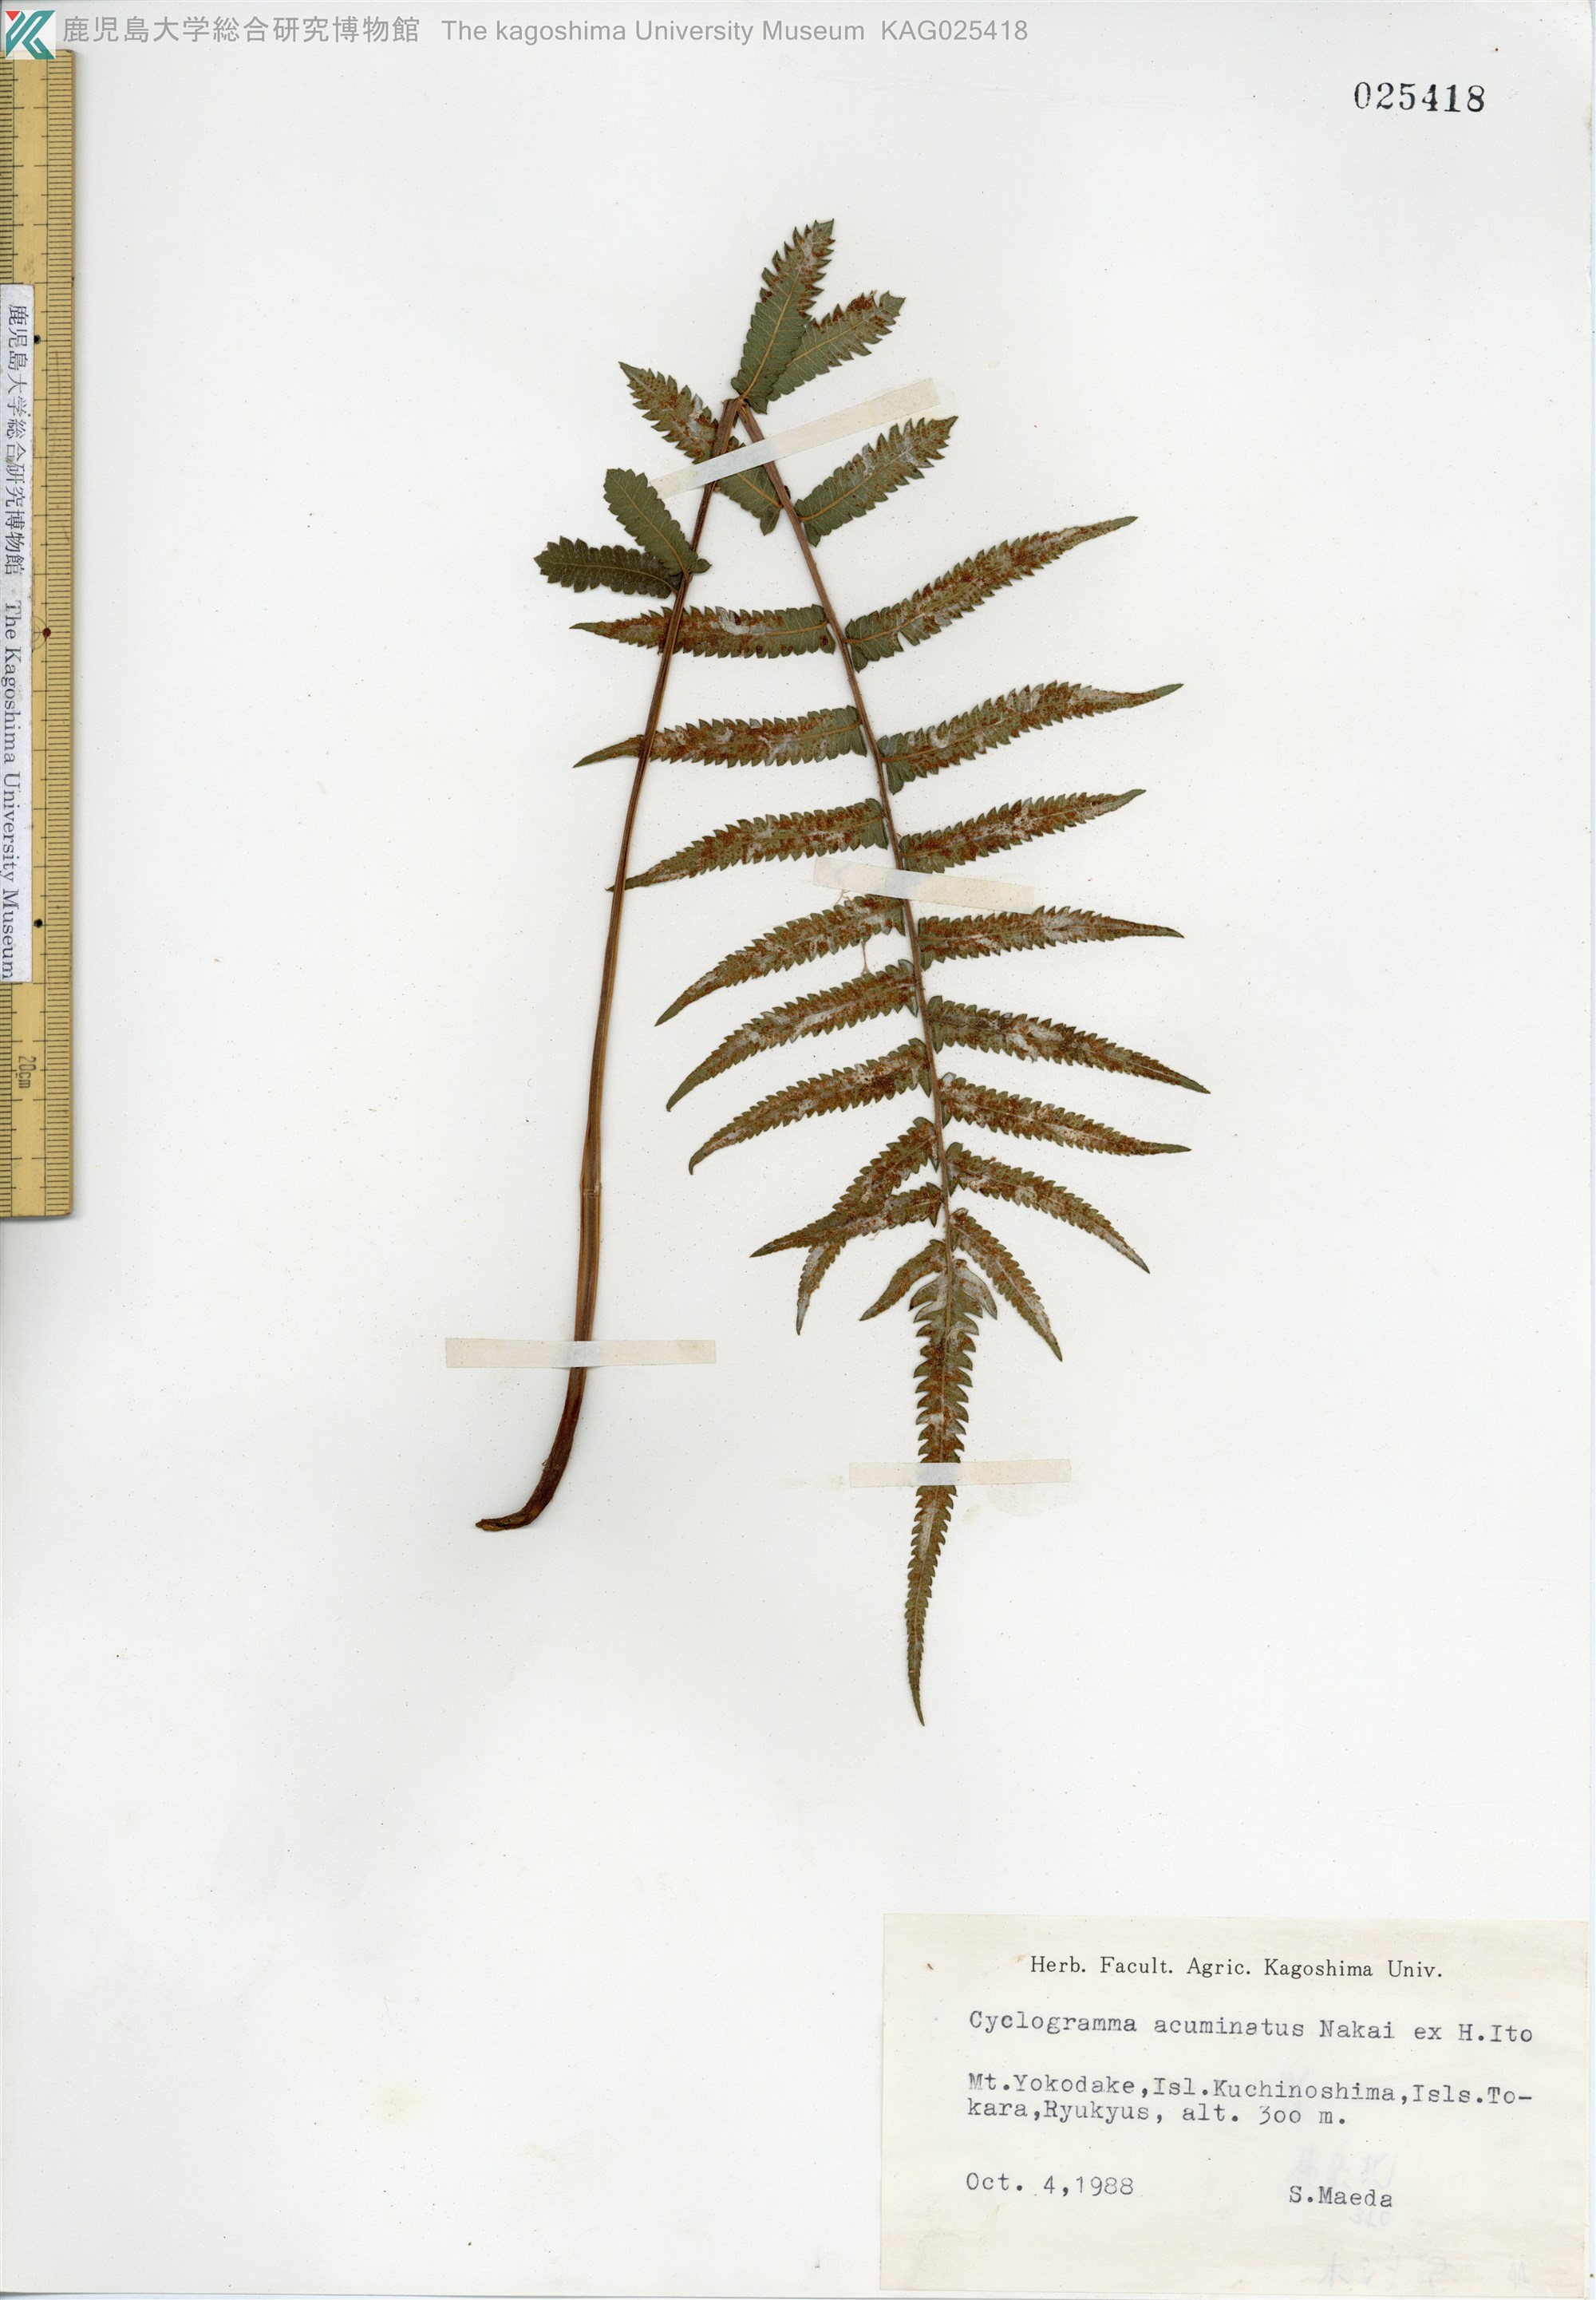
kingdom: Plantae
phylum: Tracheophyta
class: Polypodiopsida
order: Polypodiales
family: Thelypteridaceae
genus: Christella
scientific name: Christella acuminata
